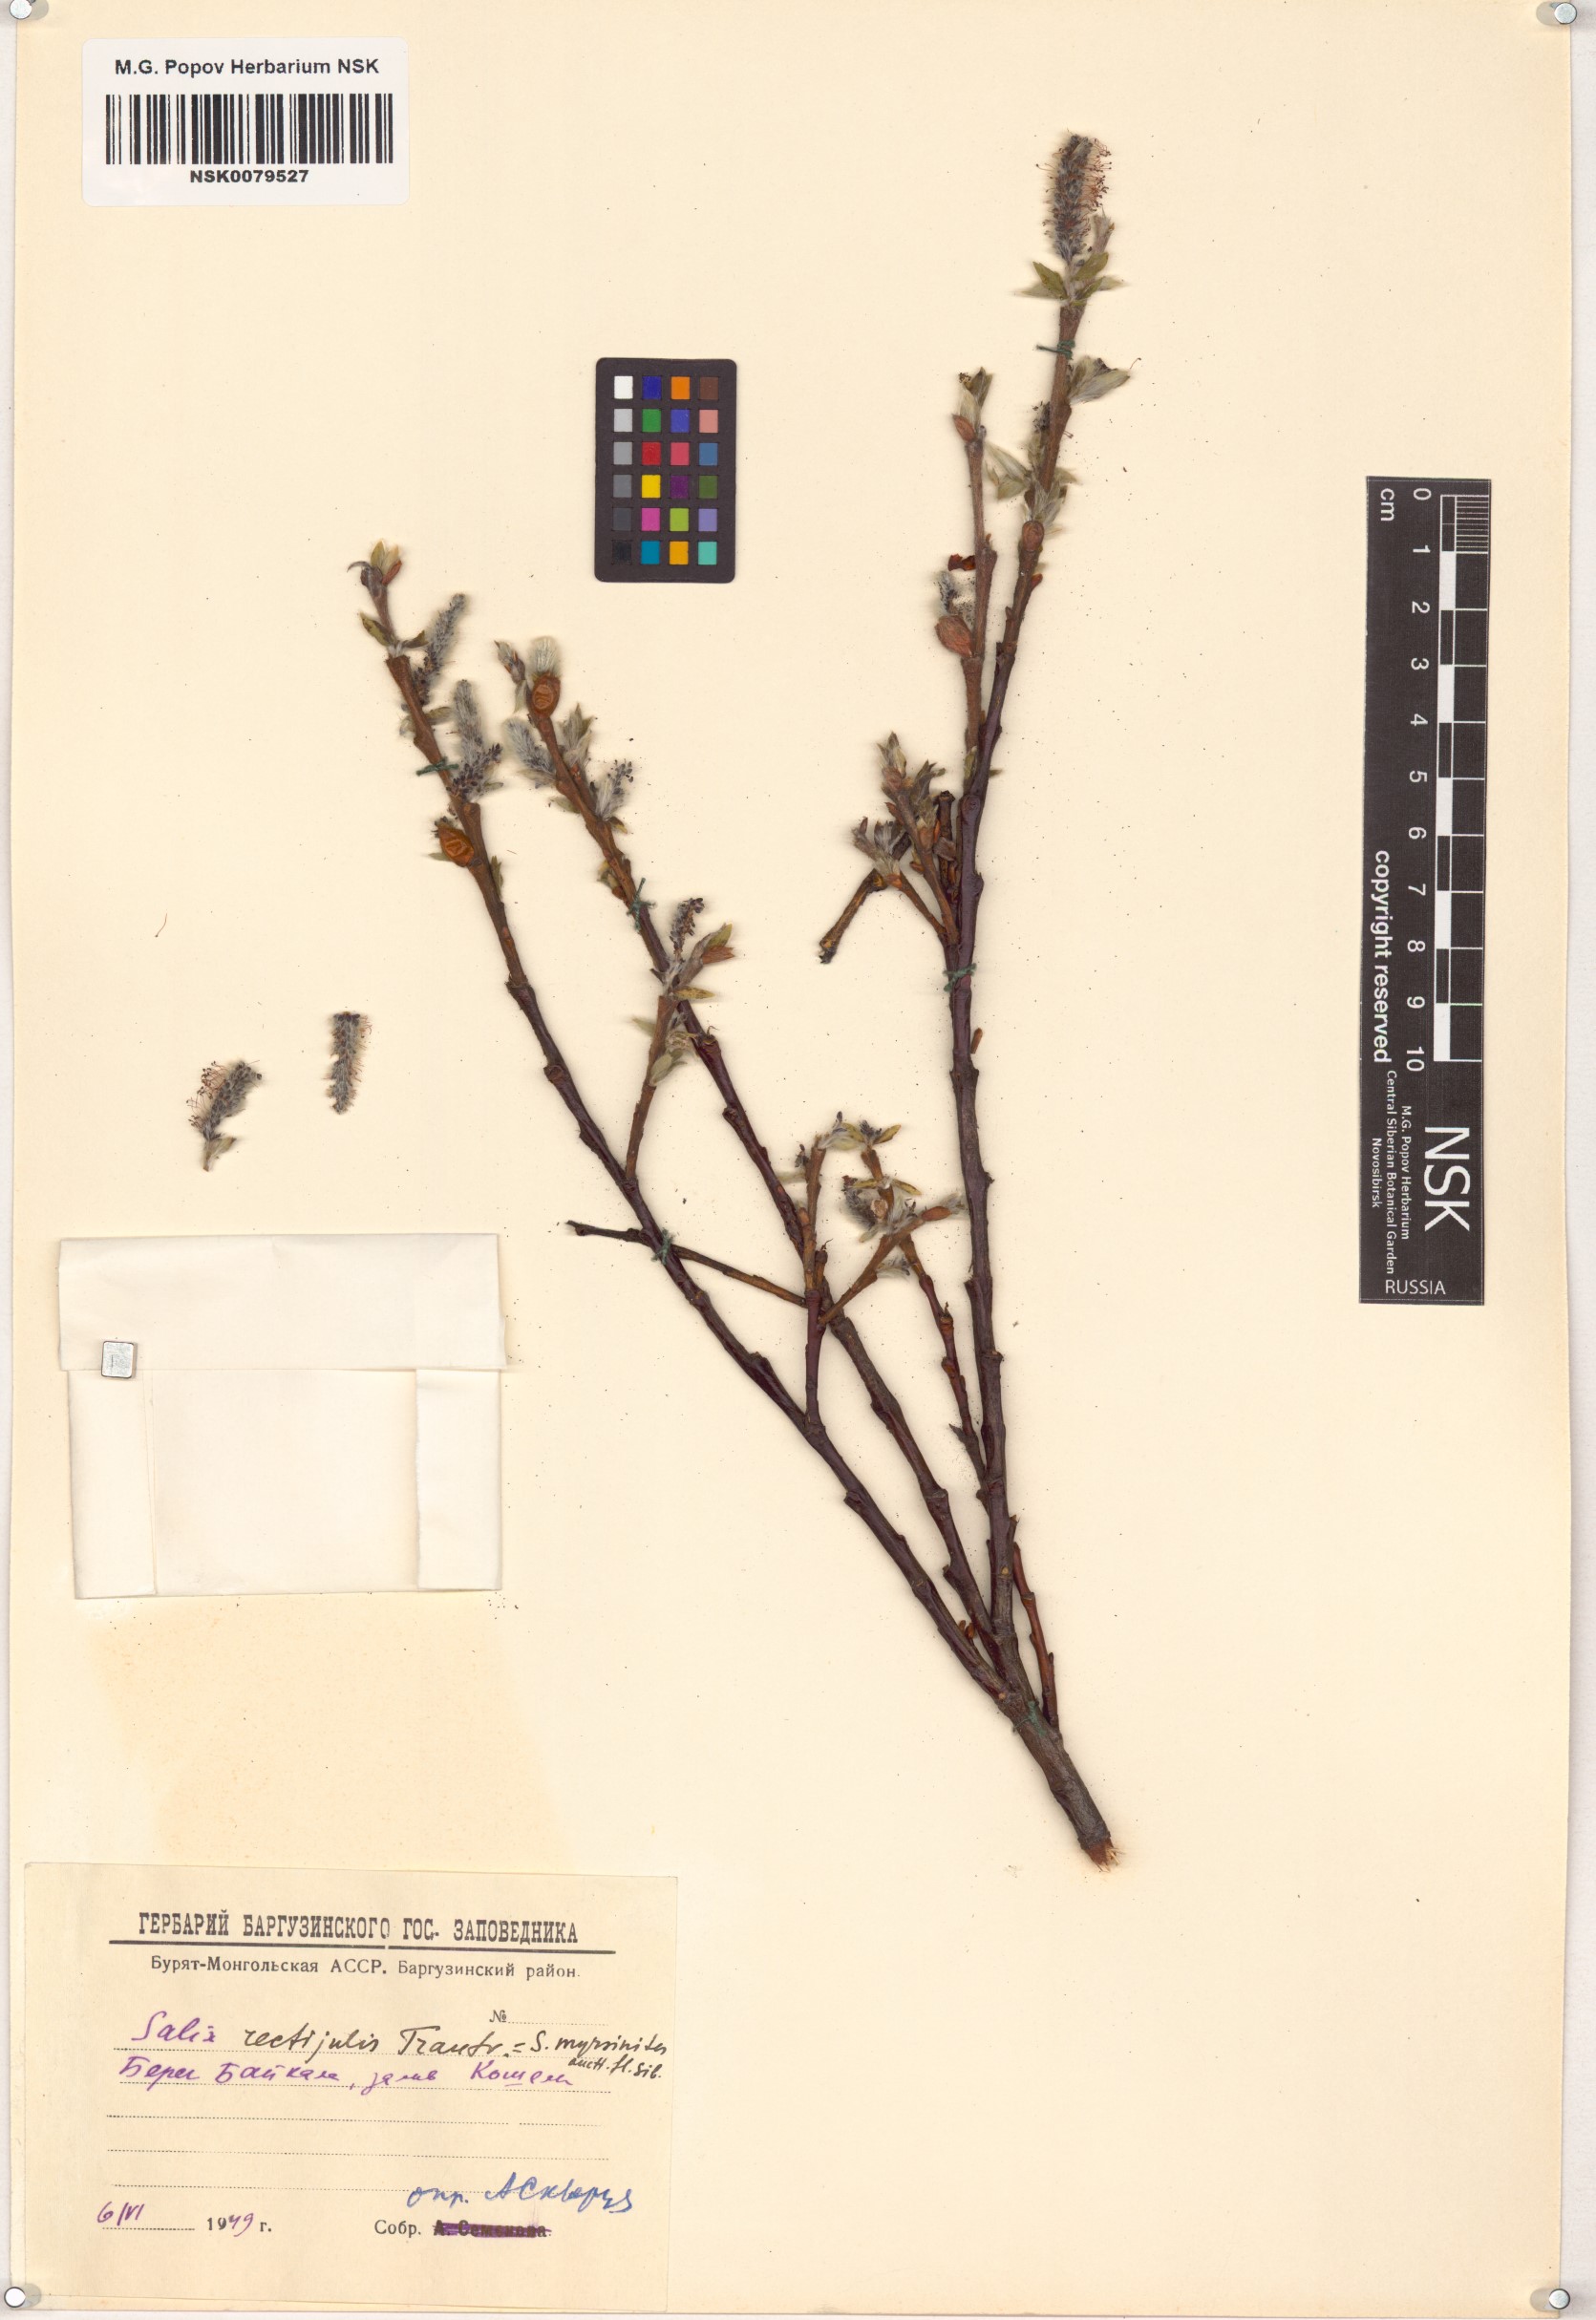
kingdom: Plantae
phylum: Tracheophyta
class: Magnoliopsida
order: Malpighiales
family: Salicaceae
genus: Salix
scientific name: Salix rectijulis
